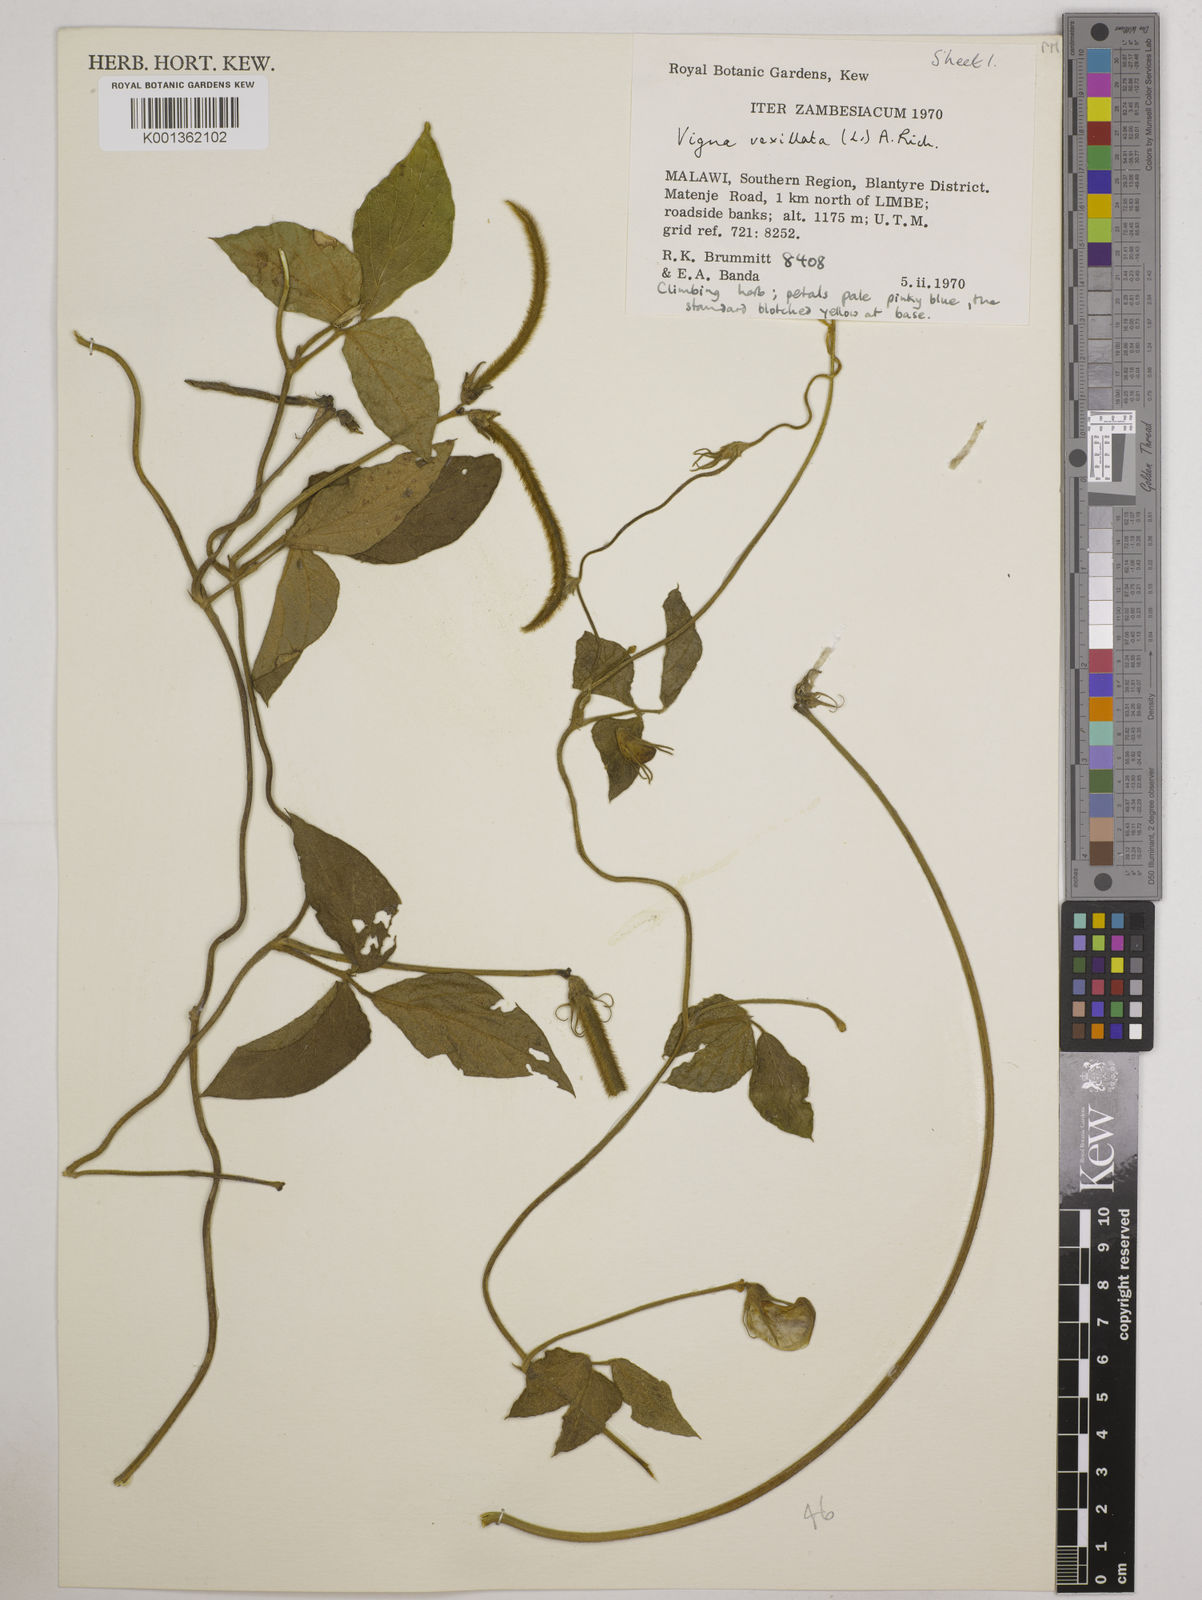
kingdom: Plantae
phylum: Tracheophyta
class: Magnoliopsida
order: Fabales
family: Fabaceae
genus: Vigna
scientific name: Vigna vexillata
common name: Zombi pea
